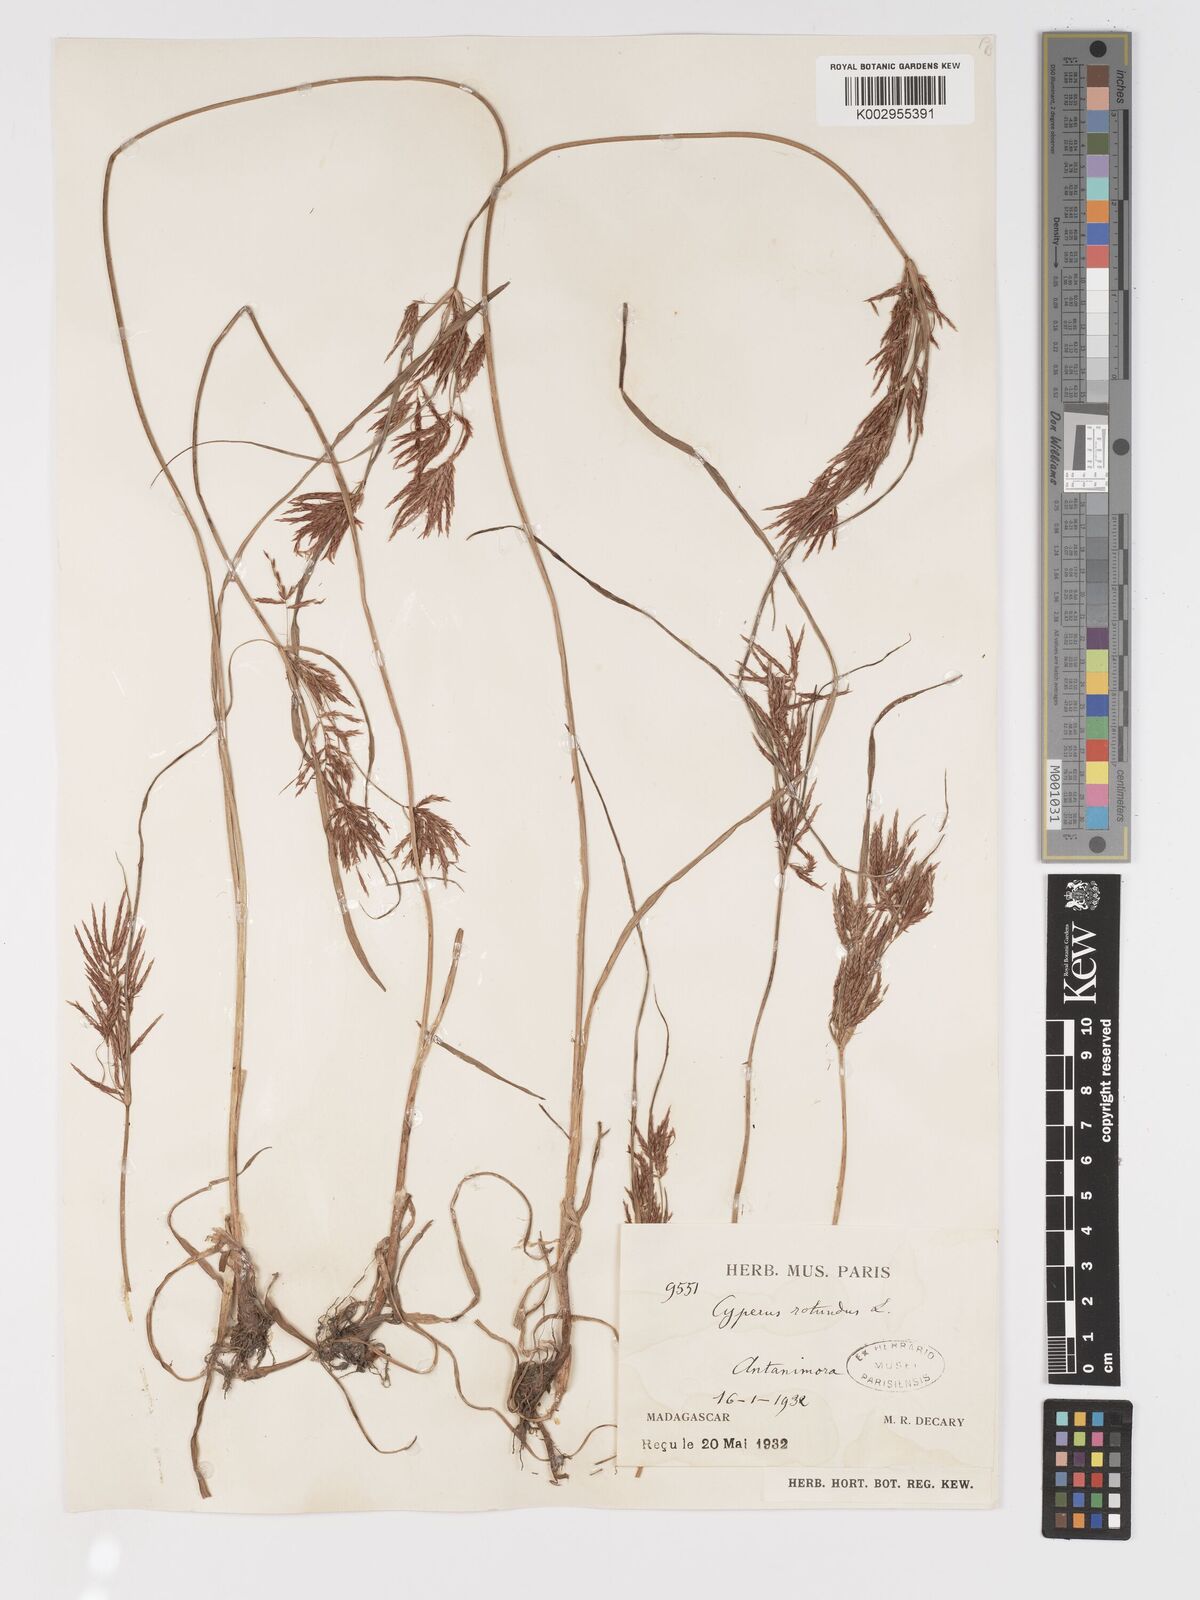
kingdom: Plantae
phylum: Tracheophyta
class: Liliopsida
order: Poales
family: Cyperaceae
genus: Cyperus
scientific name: Cyperus tuberosus
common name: Nut grass
